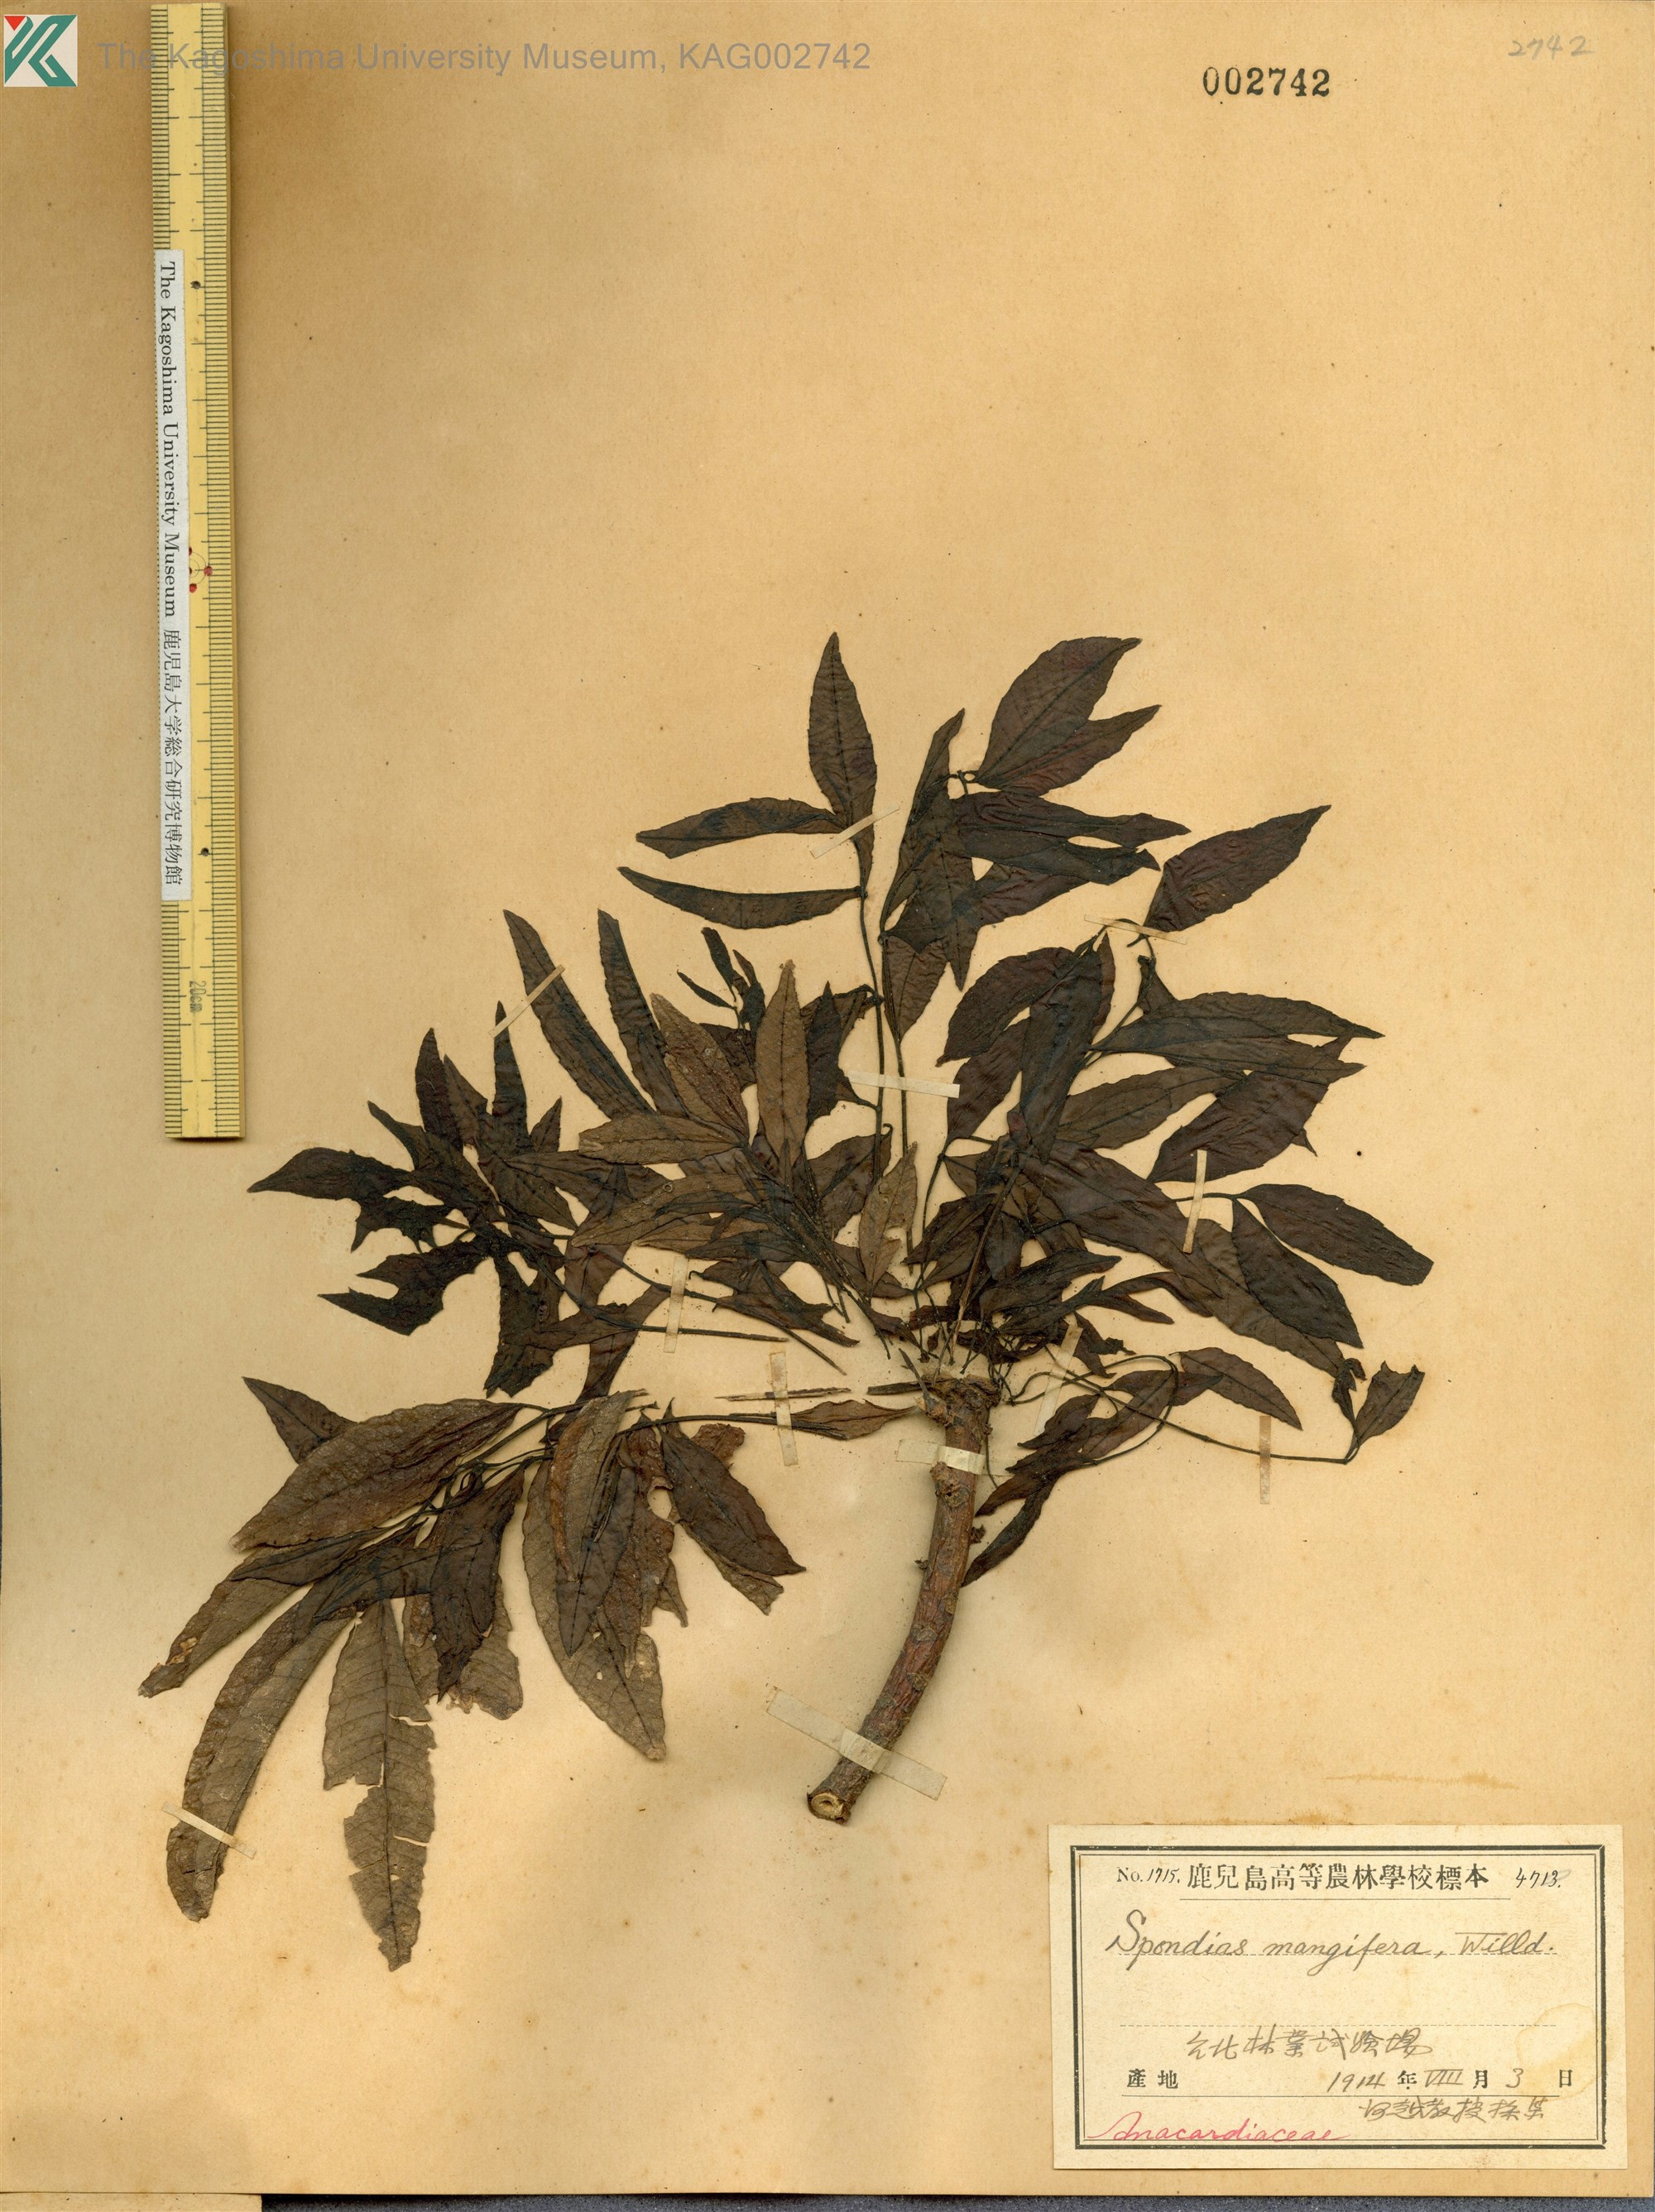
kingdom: Plantae
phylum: Tracheophyta
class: Magnoliopsida
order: Sapindales
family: Anacardiaceae
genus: Spondias
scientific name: Spondias pinnata
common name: Common hog-plum
